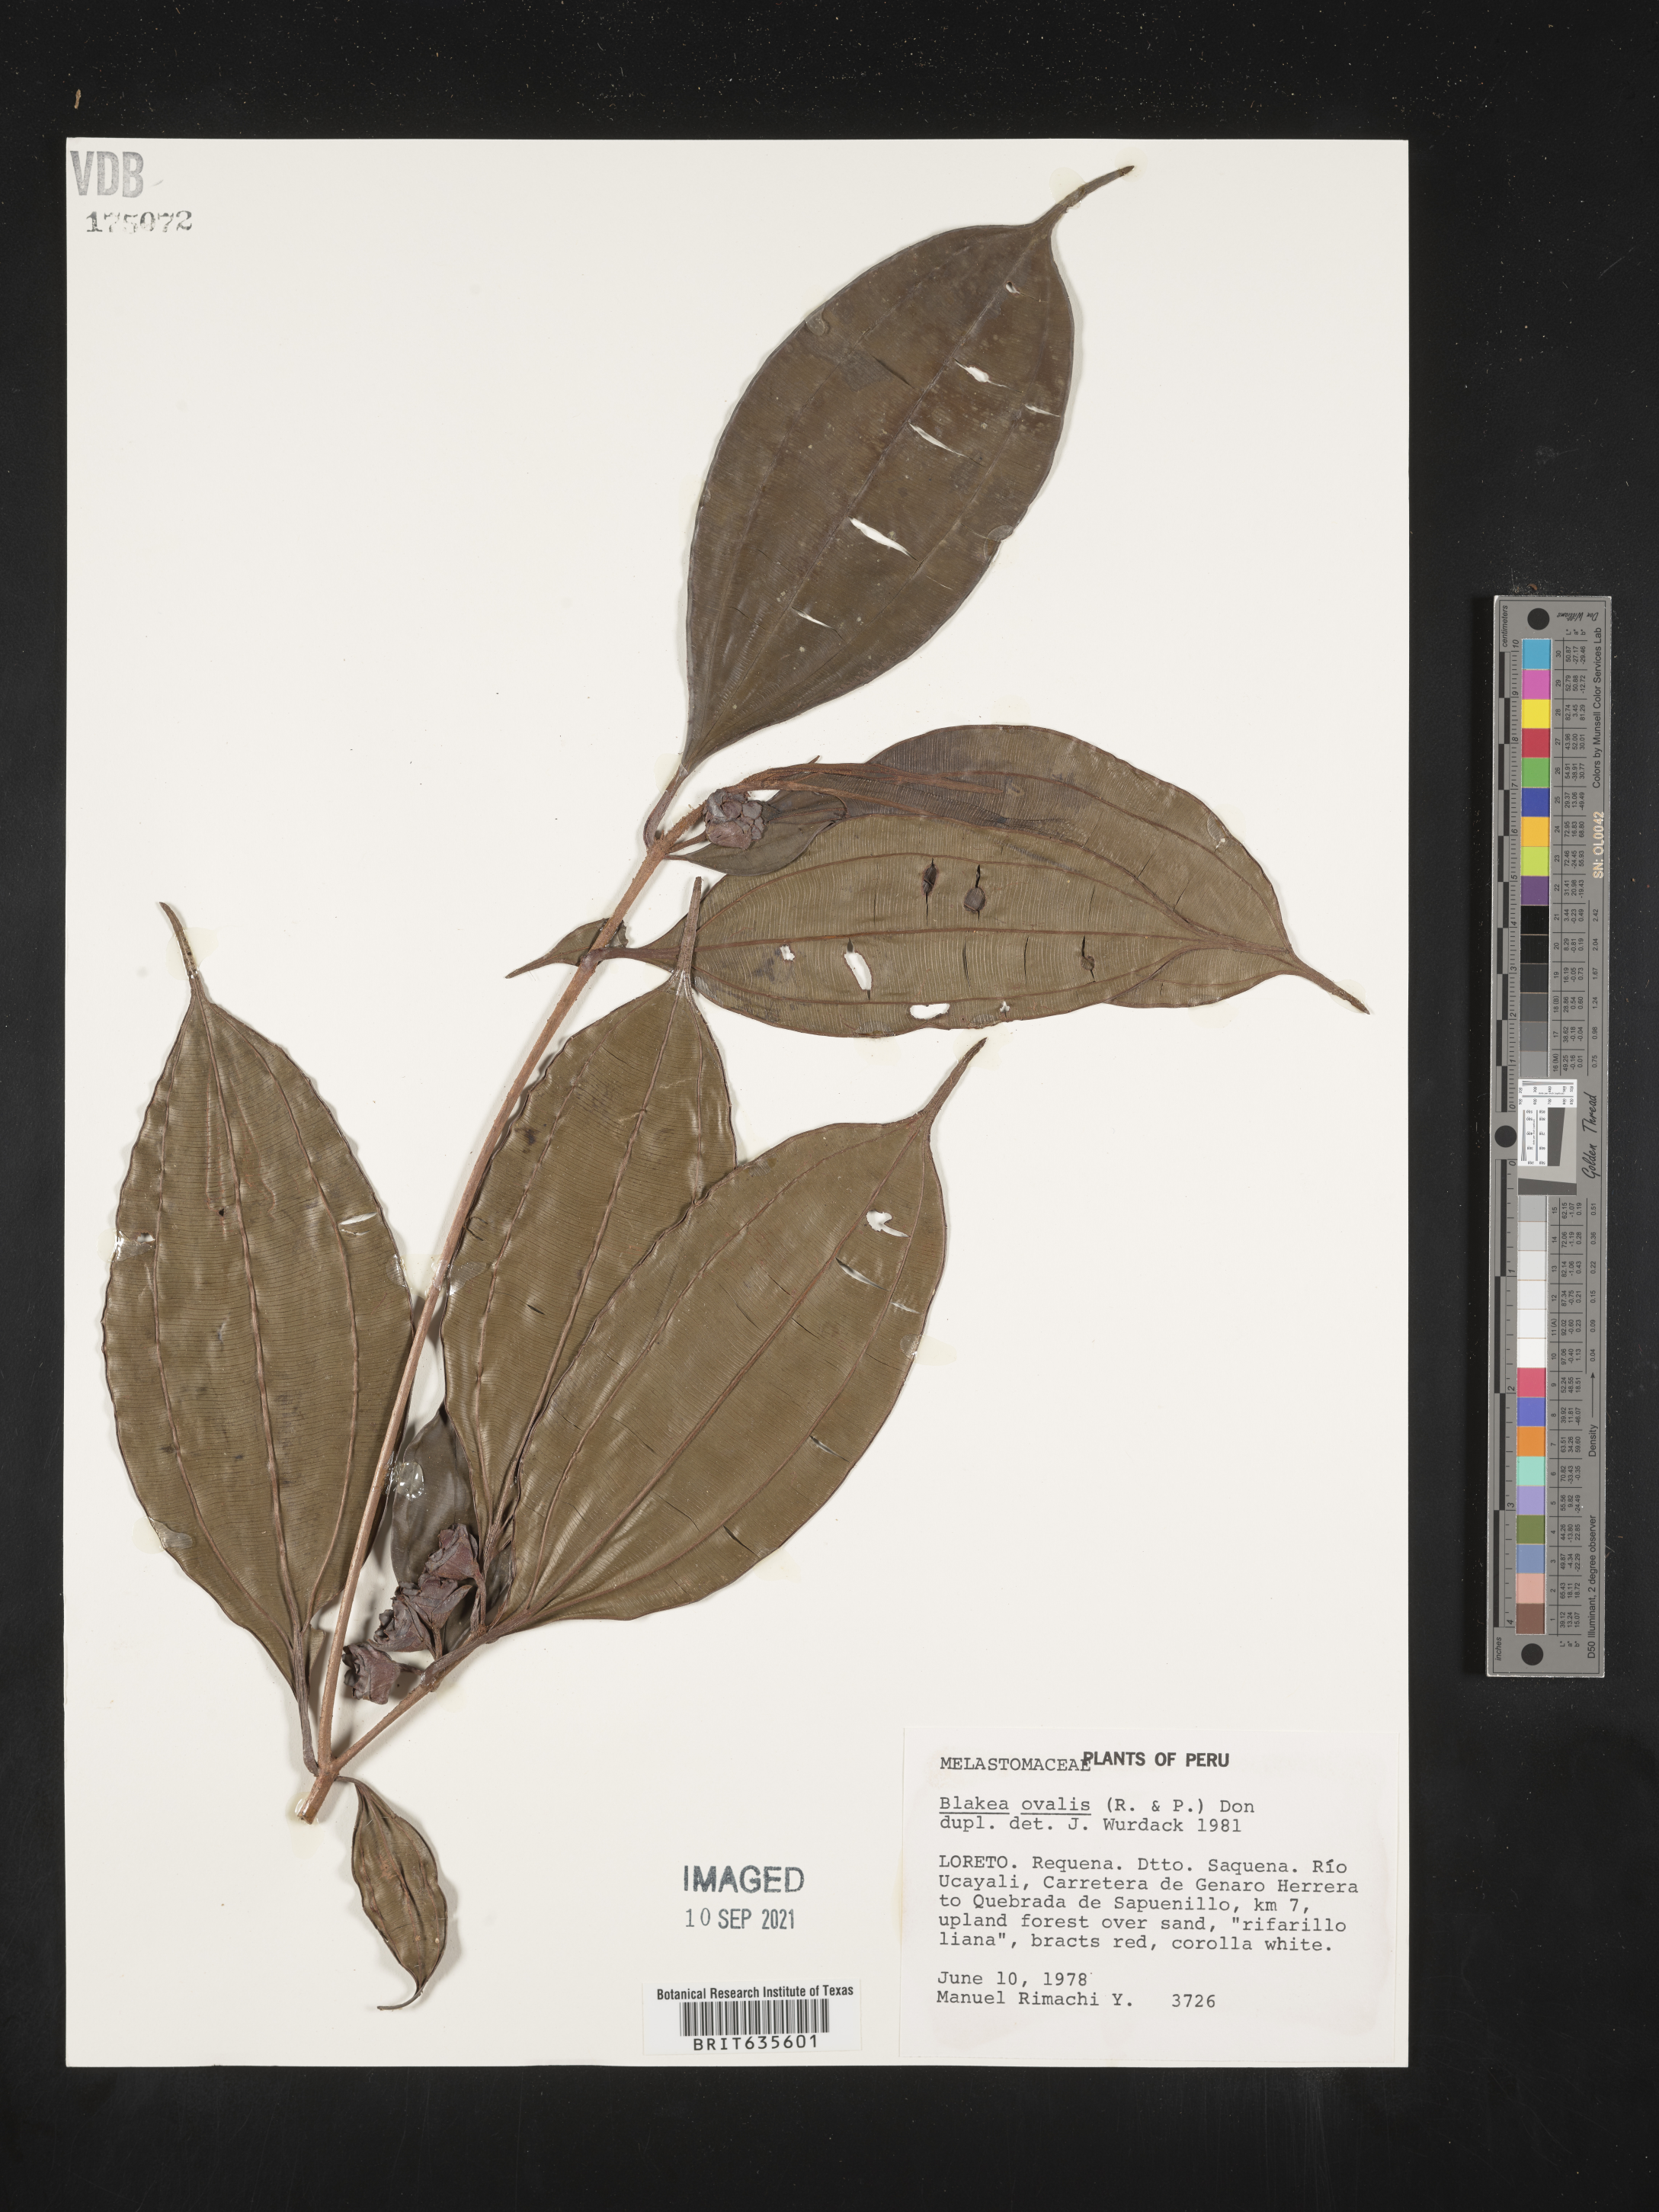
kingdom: Plantae
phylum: Tracheophyta
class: Magnoliopsida
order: Myrtales
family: Melastomataceae
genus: Blakea
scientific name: Blakea
